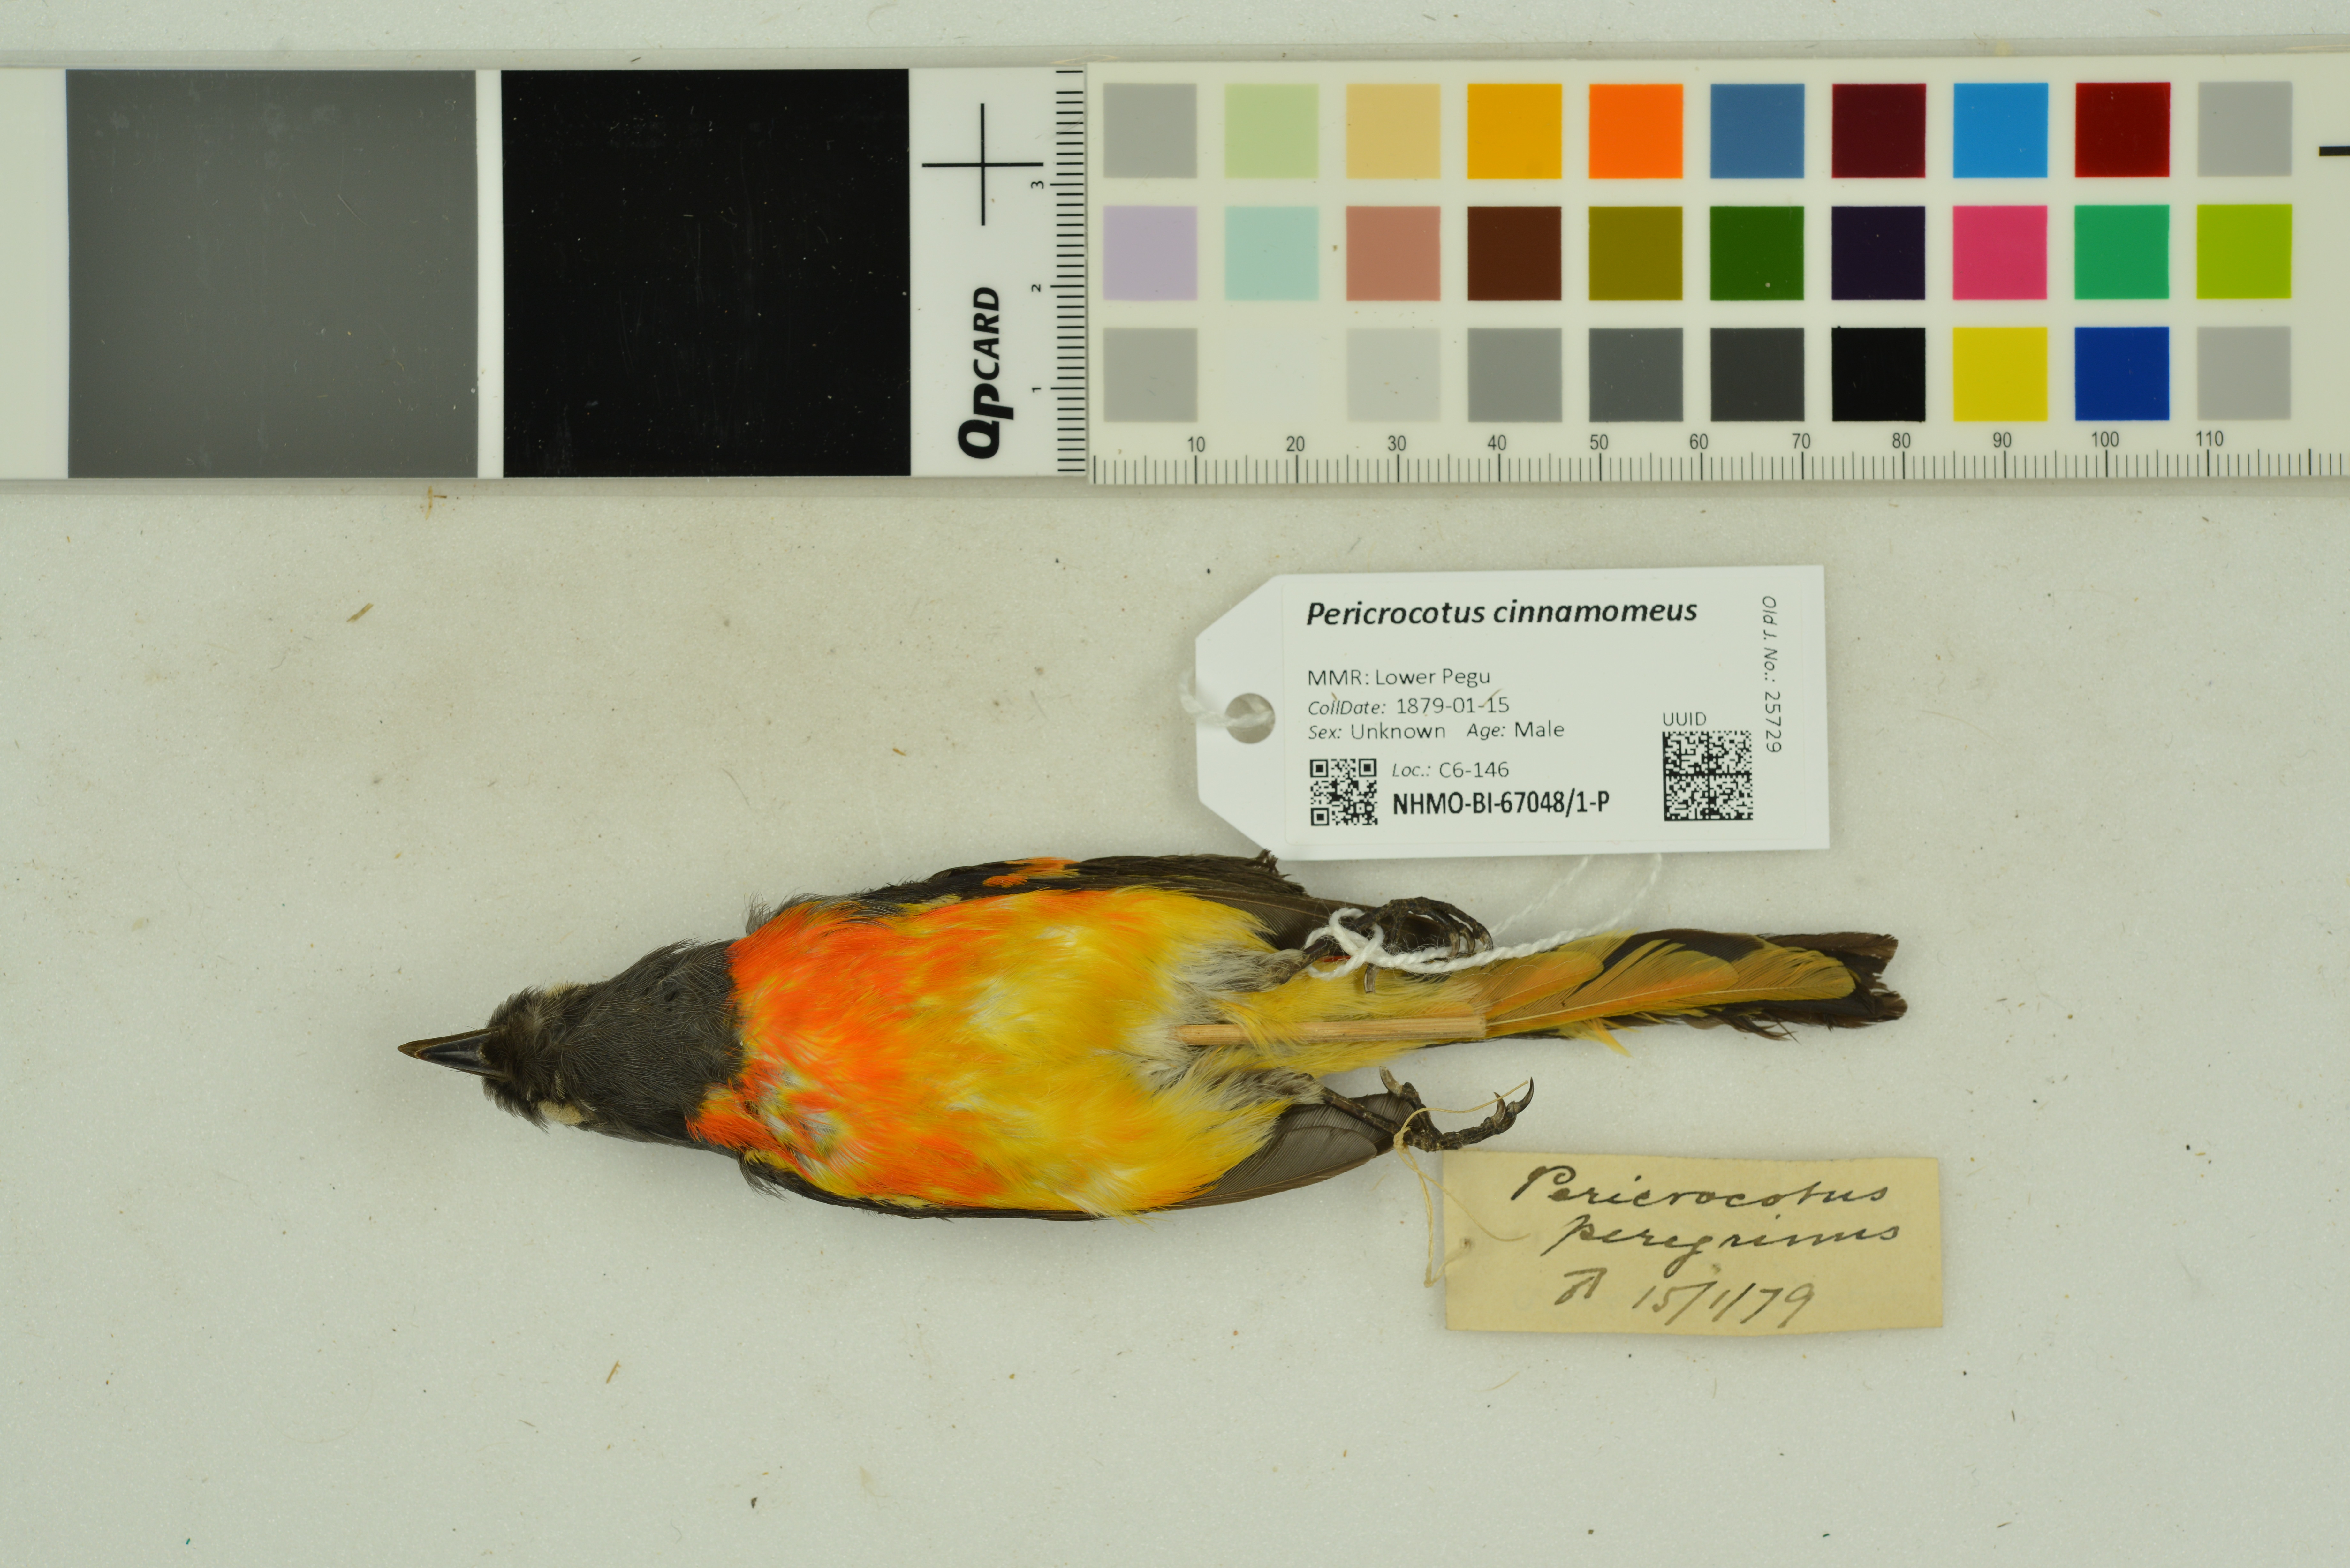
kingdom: Animalia
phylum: Chordata
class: Aves
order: Passeriformes
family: Campephagidae
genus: Pericrocotus
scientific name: Pericrocotus cinnamomeus
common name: Small minivet
